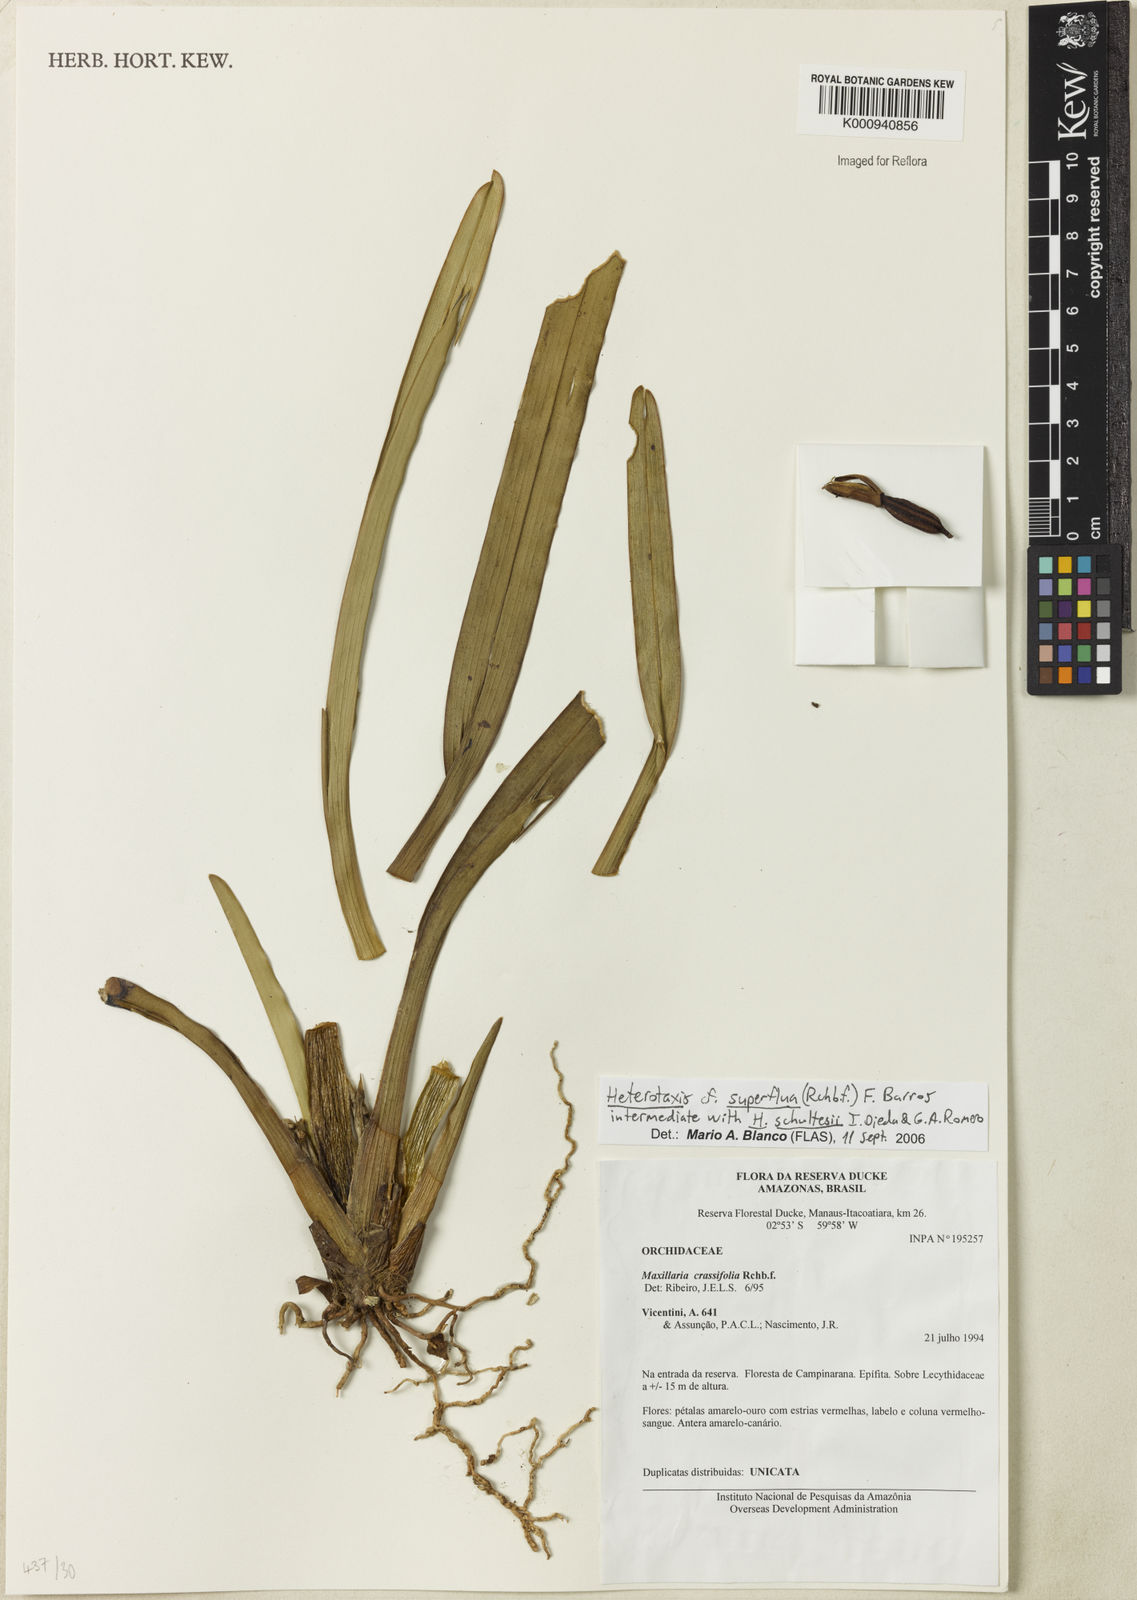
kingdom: Plantae
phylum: Tracheophyta
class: Liliopsida
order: Asparagales
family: Orchidaceae
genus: Maxillaria
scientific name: Maxillaria superflua
